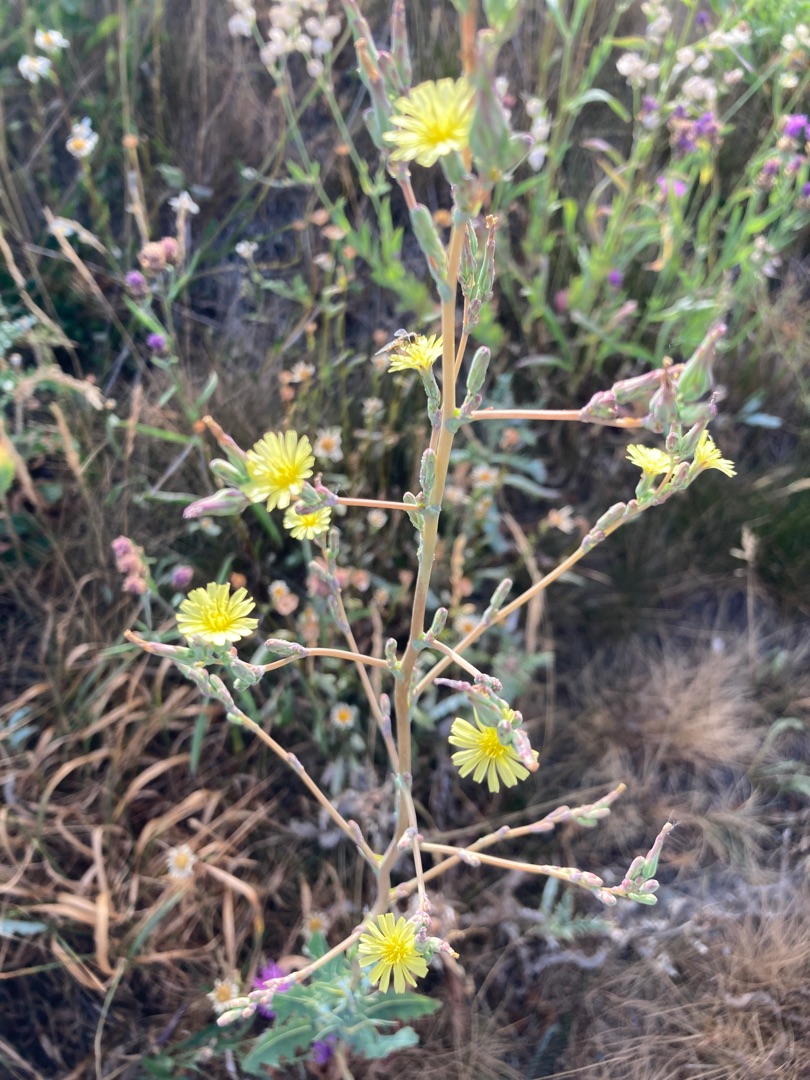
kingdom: Plantae
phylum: Tracheophyta
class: Magnoliopsida
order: Asterales
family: Asteraceae
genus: Lactuca
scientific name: Lactuca serriola
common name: Tornet salat
